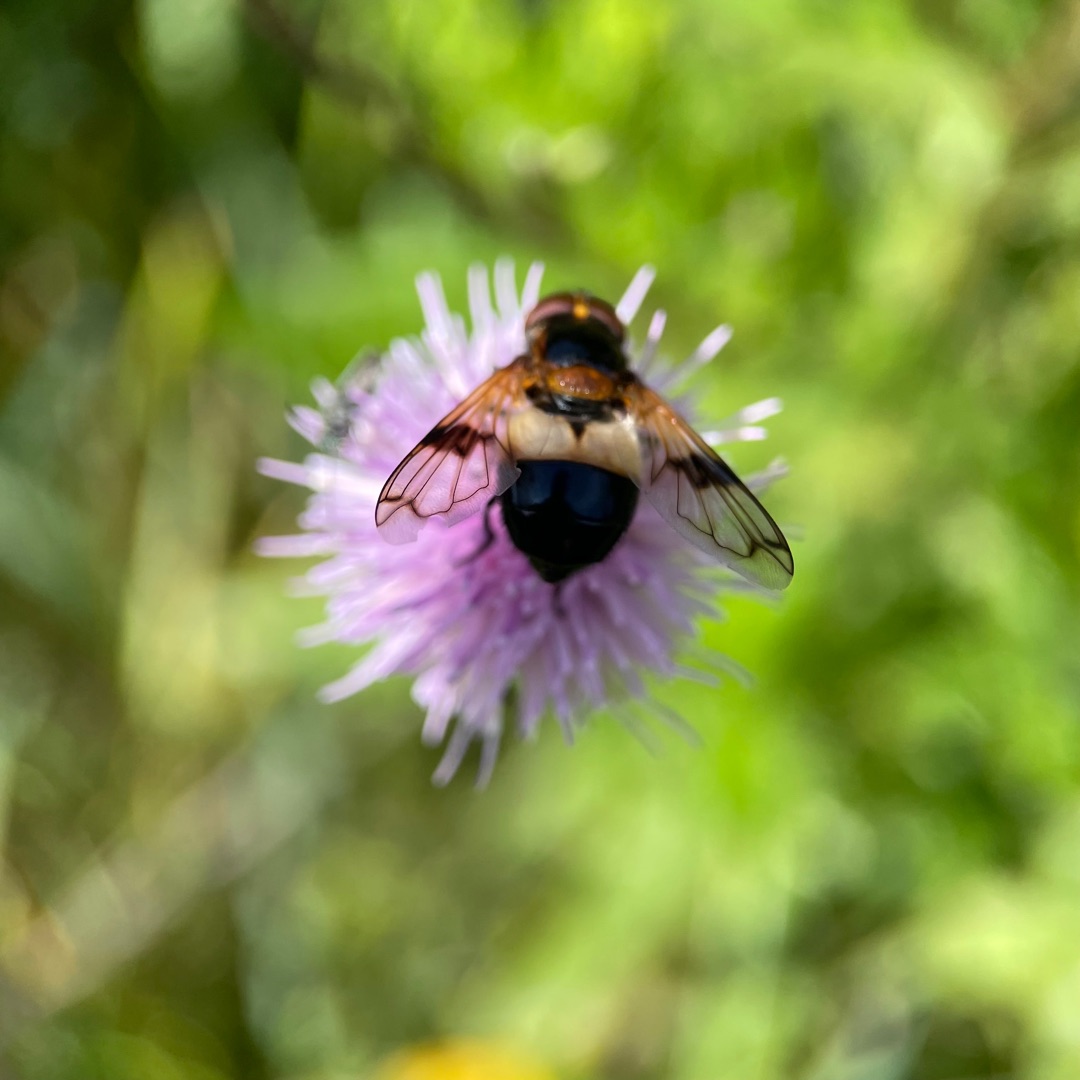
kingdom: Animalia
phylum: Arthropoda
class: Insecta
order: Diptera
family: Syrphidae
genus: Volucella
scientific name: Volucella pellucens
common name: Hvidbåndet humlesvirreflue
